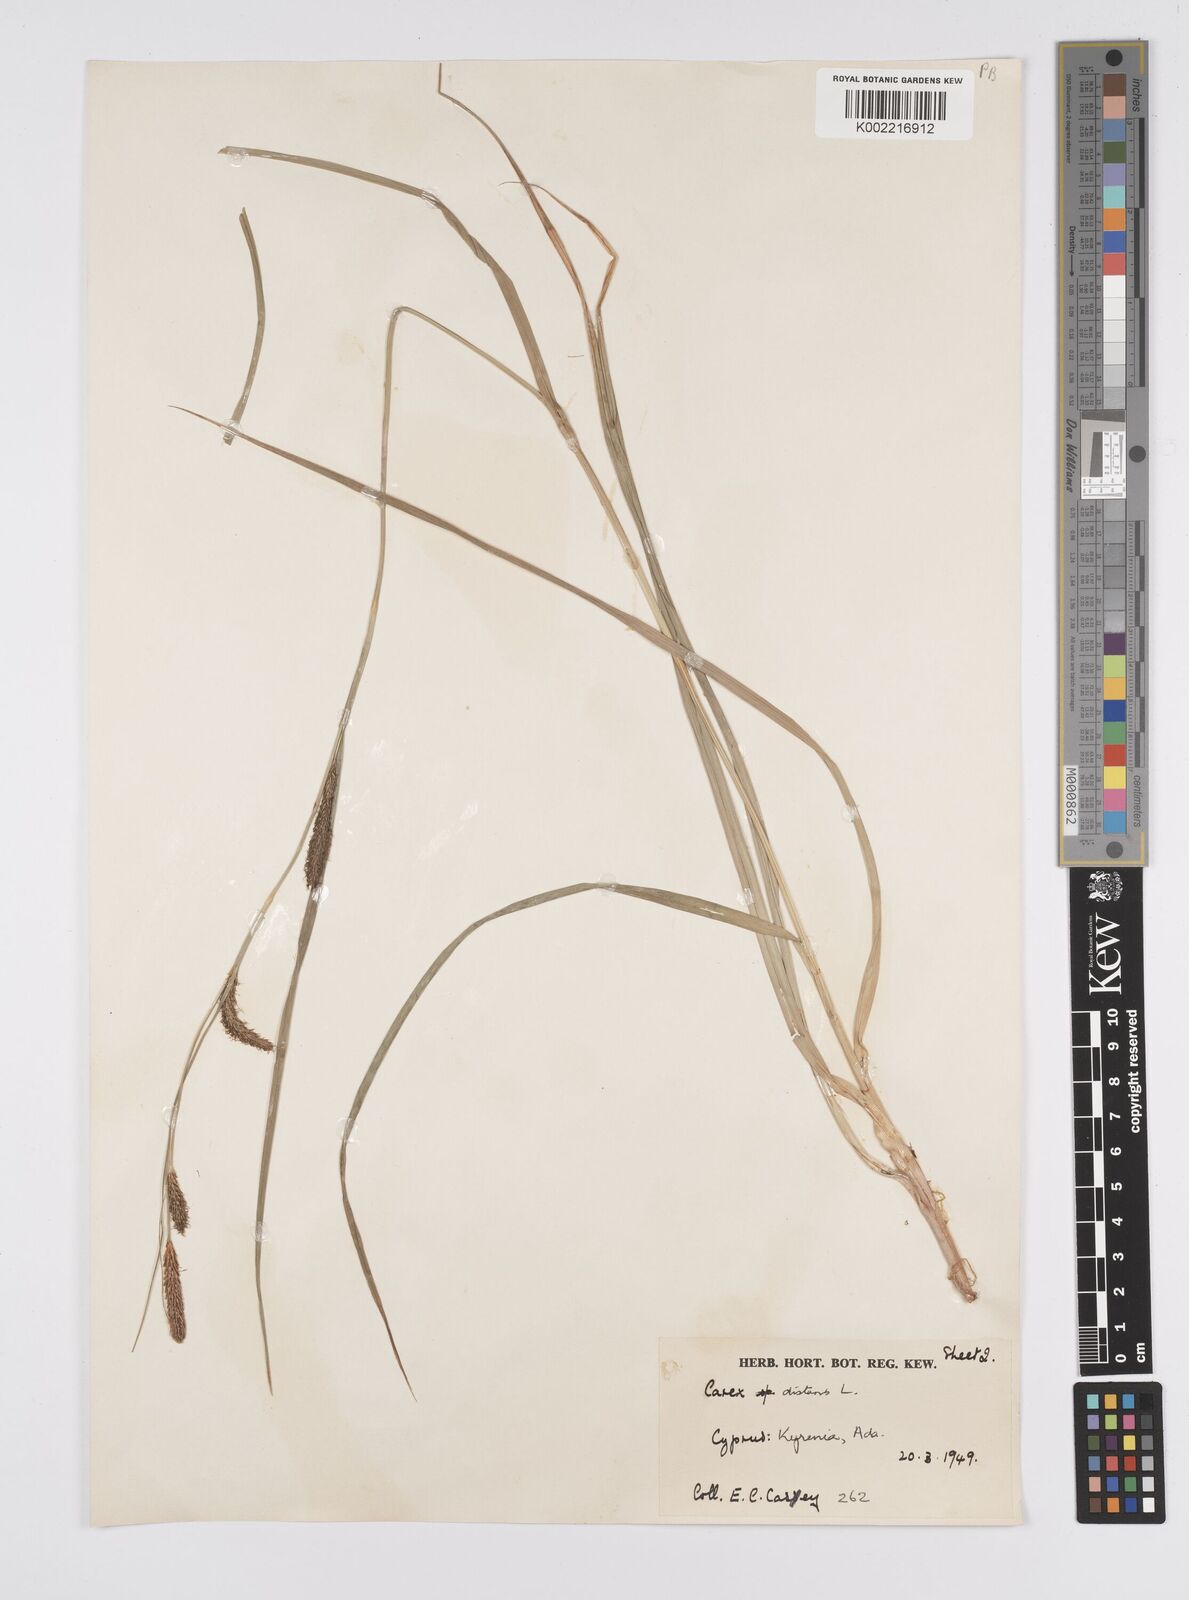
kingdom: Plantae
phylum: Tracheophyta
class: Liliopsida
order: Poales
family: Cyperaceae
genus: Carex
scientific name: Carex distans
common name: Distant sedge
